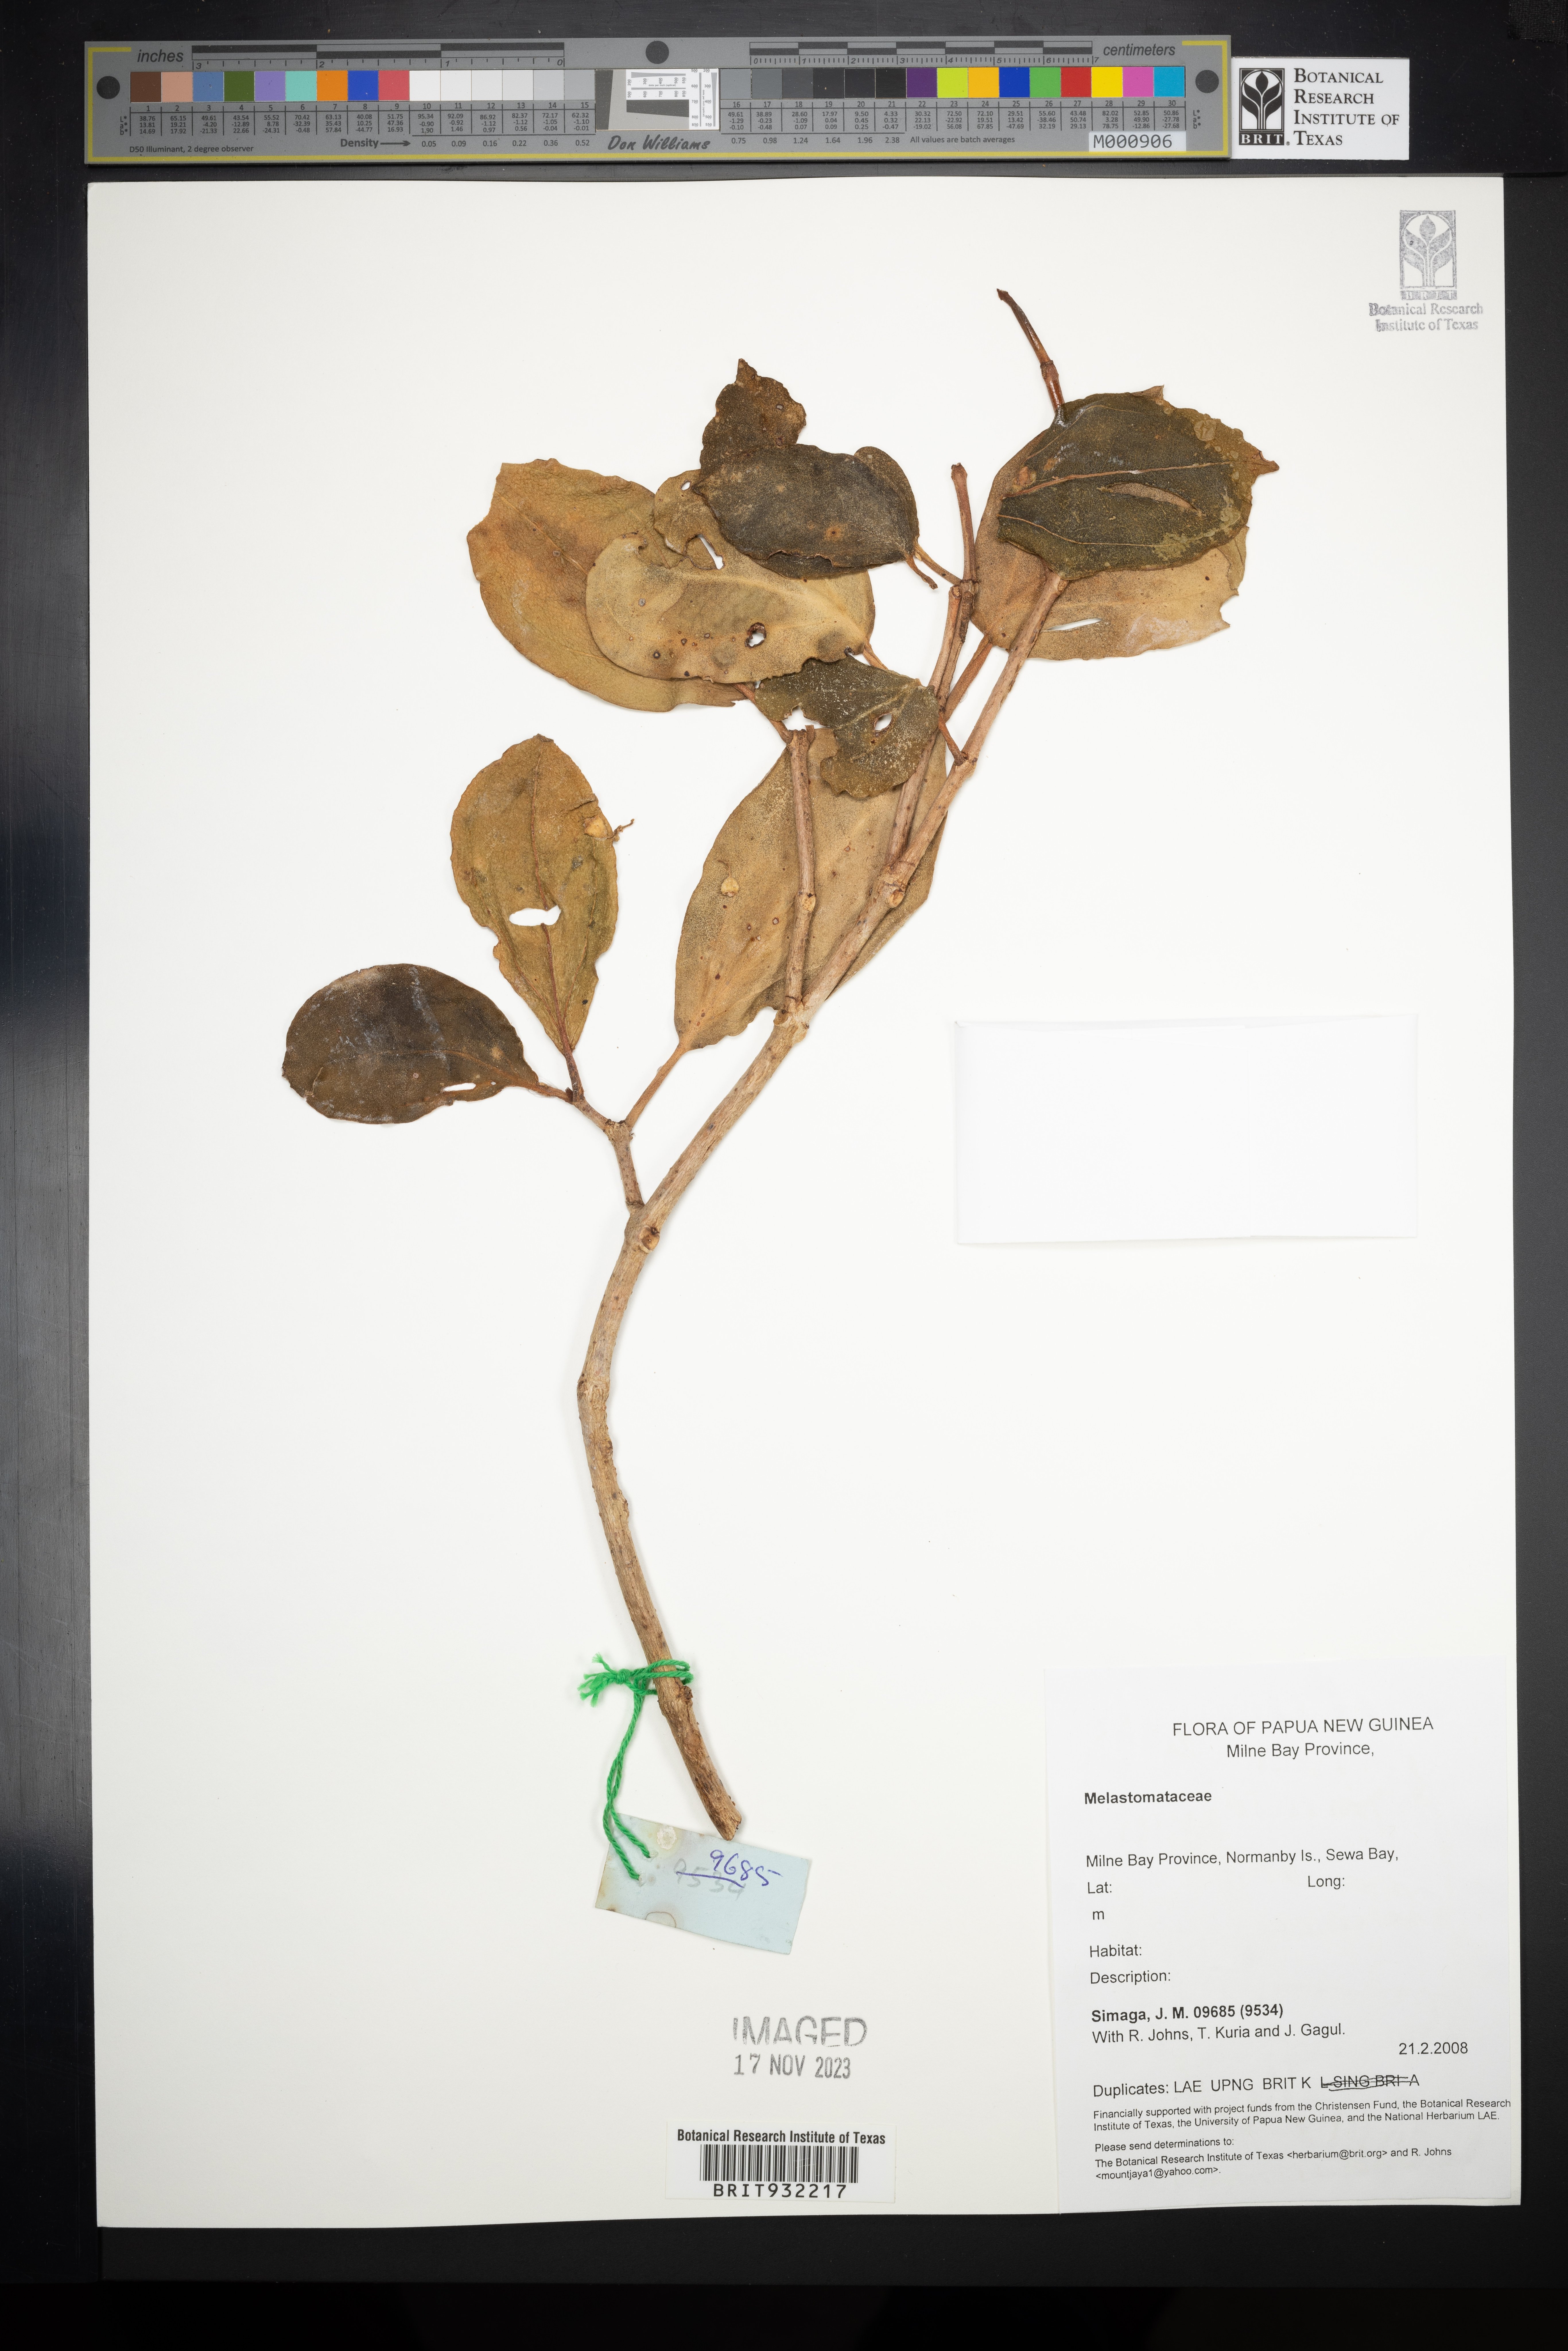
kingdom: Plantae
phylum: Tracheophyta
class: Magnoliopsida
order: Myrtales
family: Melastomataceae
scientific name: Melastomataceae
